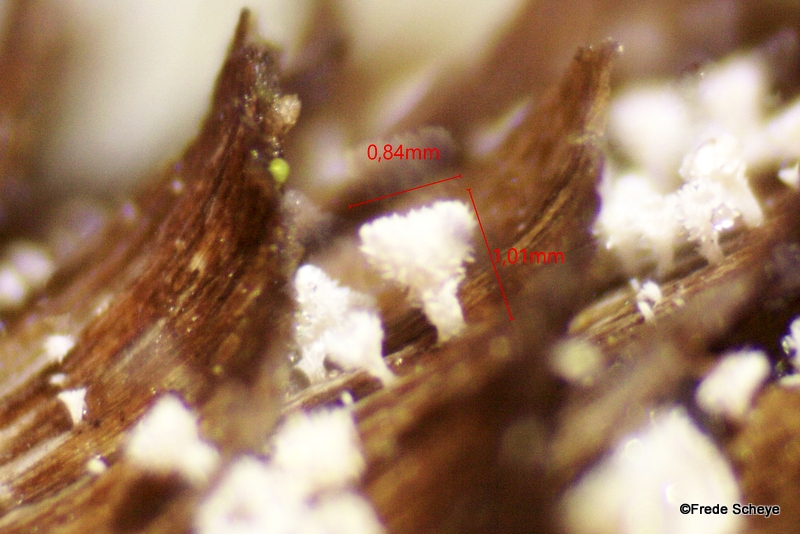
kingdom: Fungi
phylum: Ascomycota
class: Leotiomycetes
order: Helotiales
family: Lachnaceae
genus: Lachnum
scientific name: Lachnum virgineum
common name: jomfru-frynseskive
